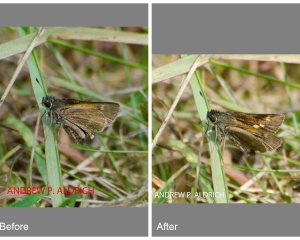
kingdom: Animalia
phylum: Arthropoda
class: Insecta
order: Lepidoptera
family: Hesperiidae
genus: Polites
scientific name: Polites themistocles
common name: Tawny-edged Skipper
